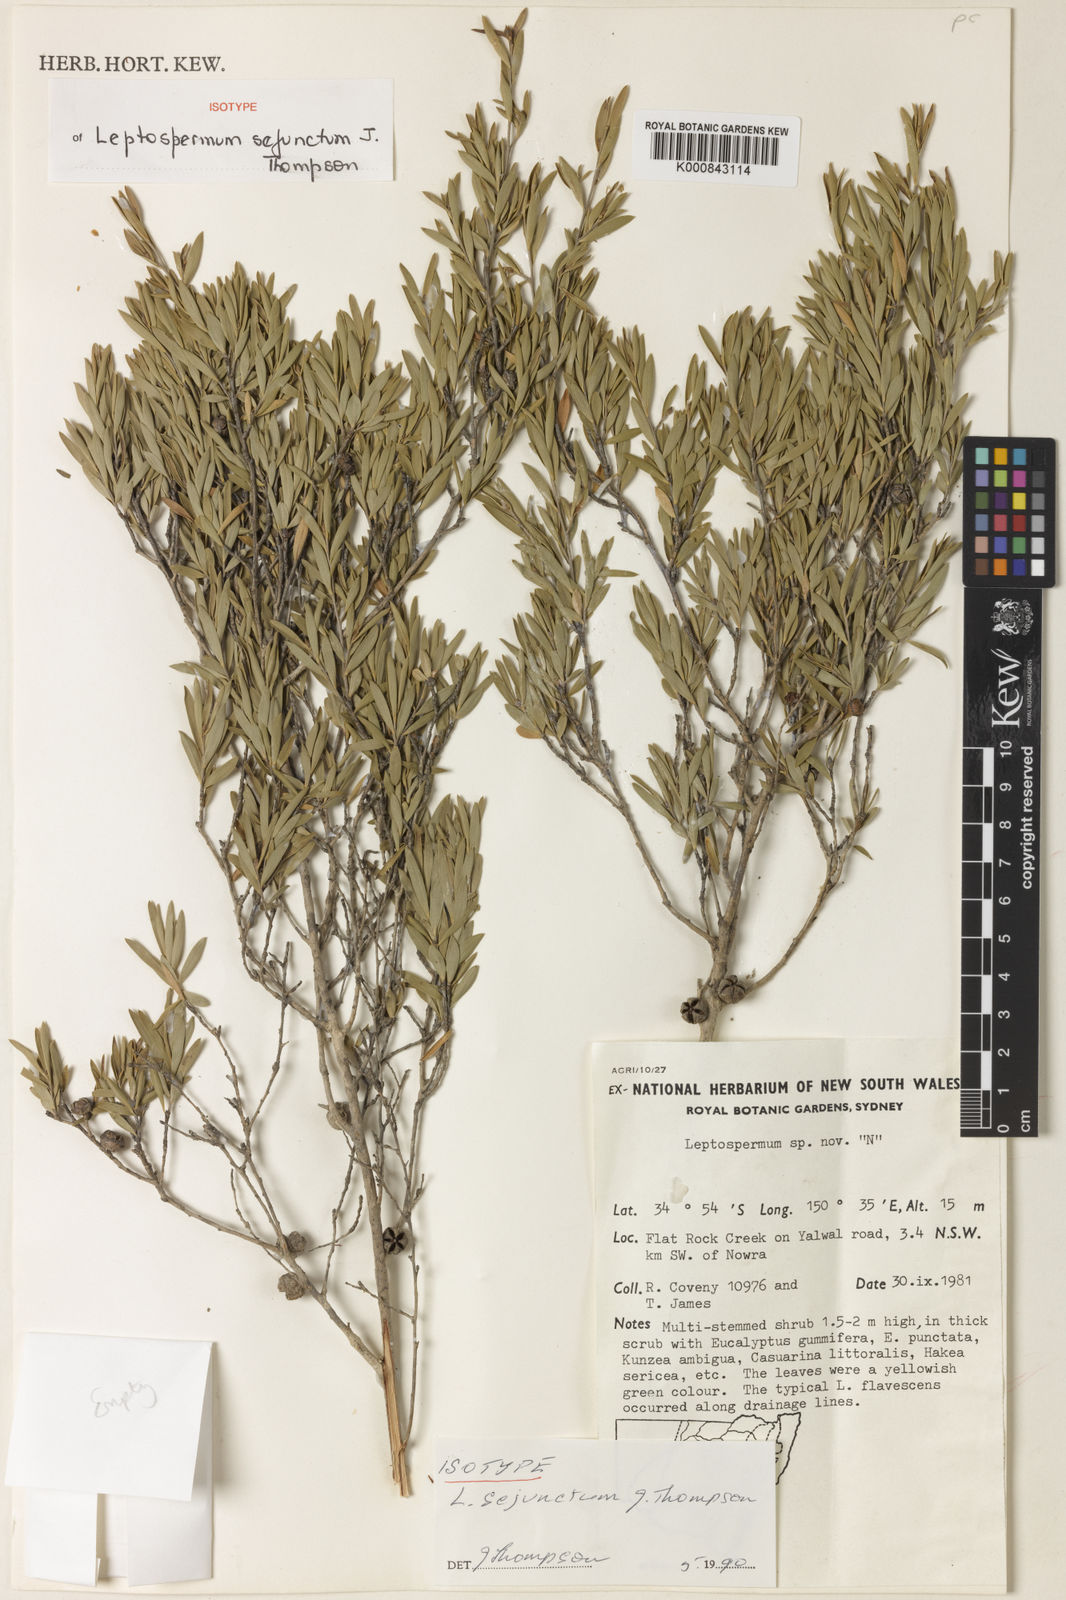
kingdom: Plantae
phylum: Tracheophyta
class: Magnoliopsida
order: Myrtales
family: Myrtaceae
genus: Leptospermum
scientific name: Leptospermum sejunctum
